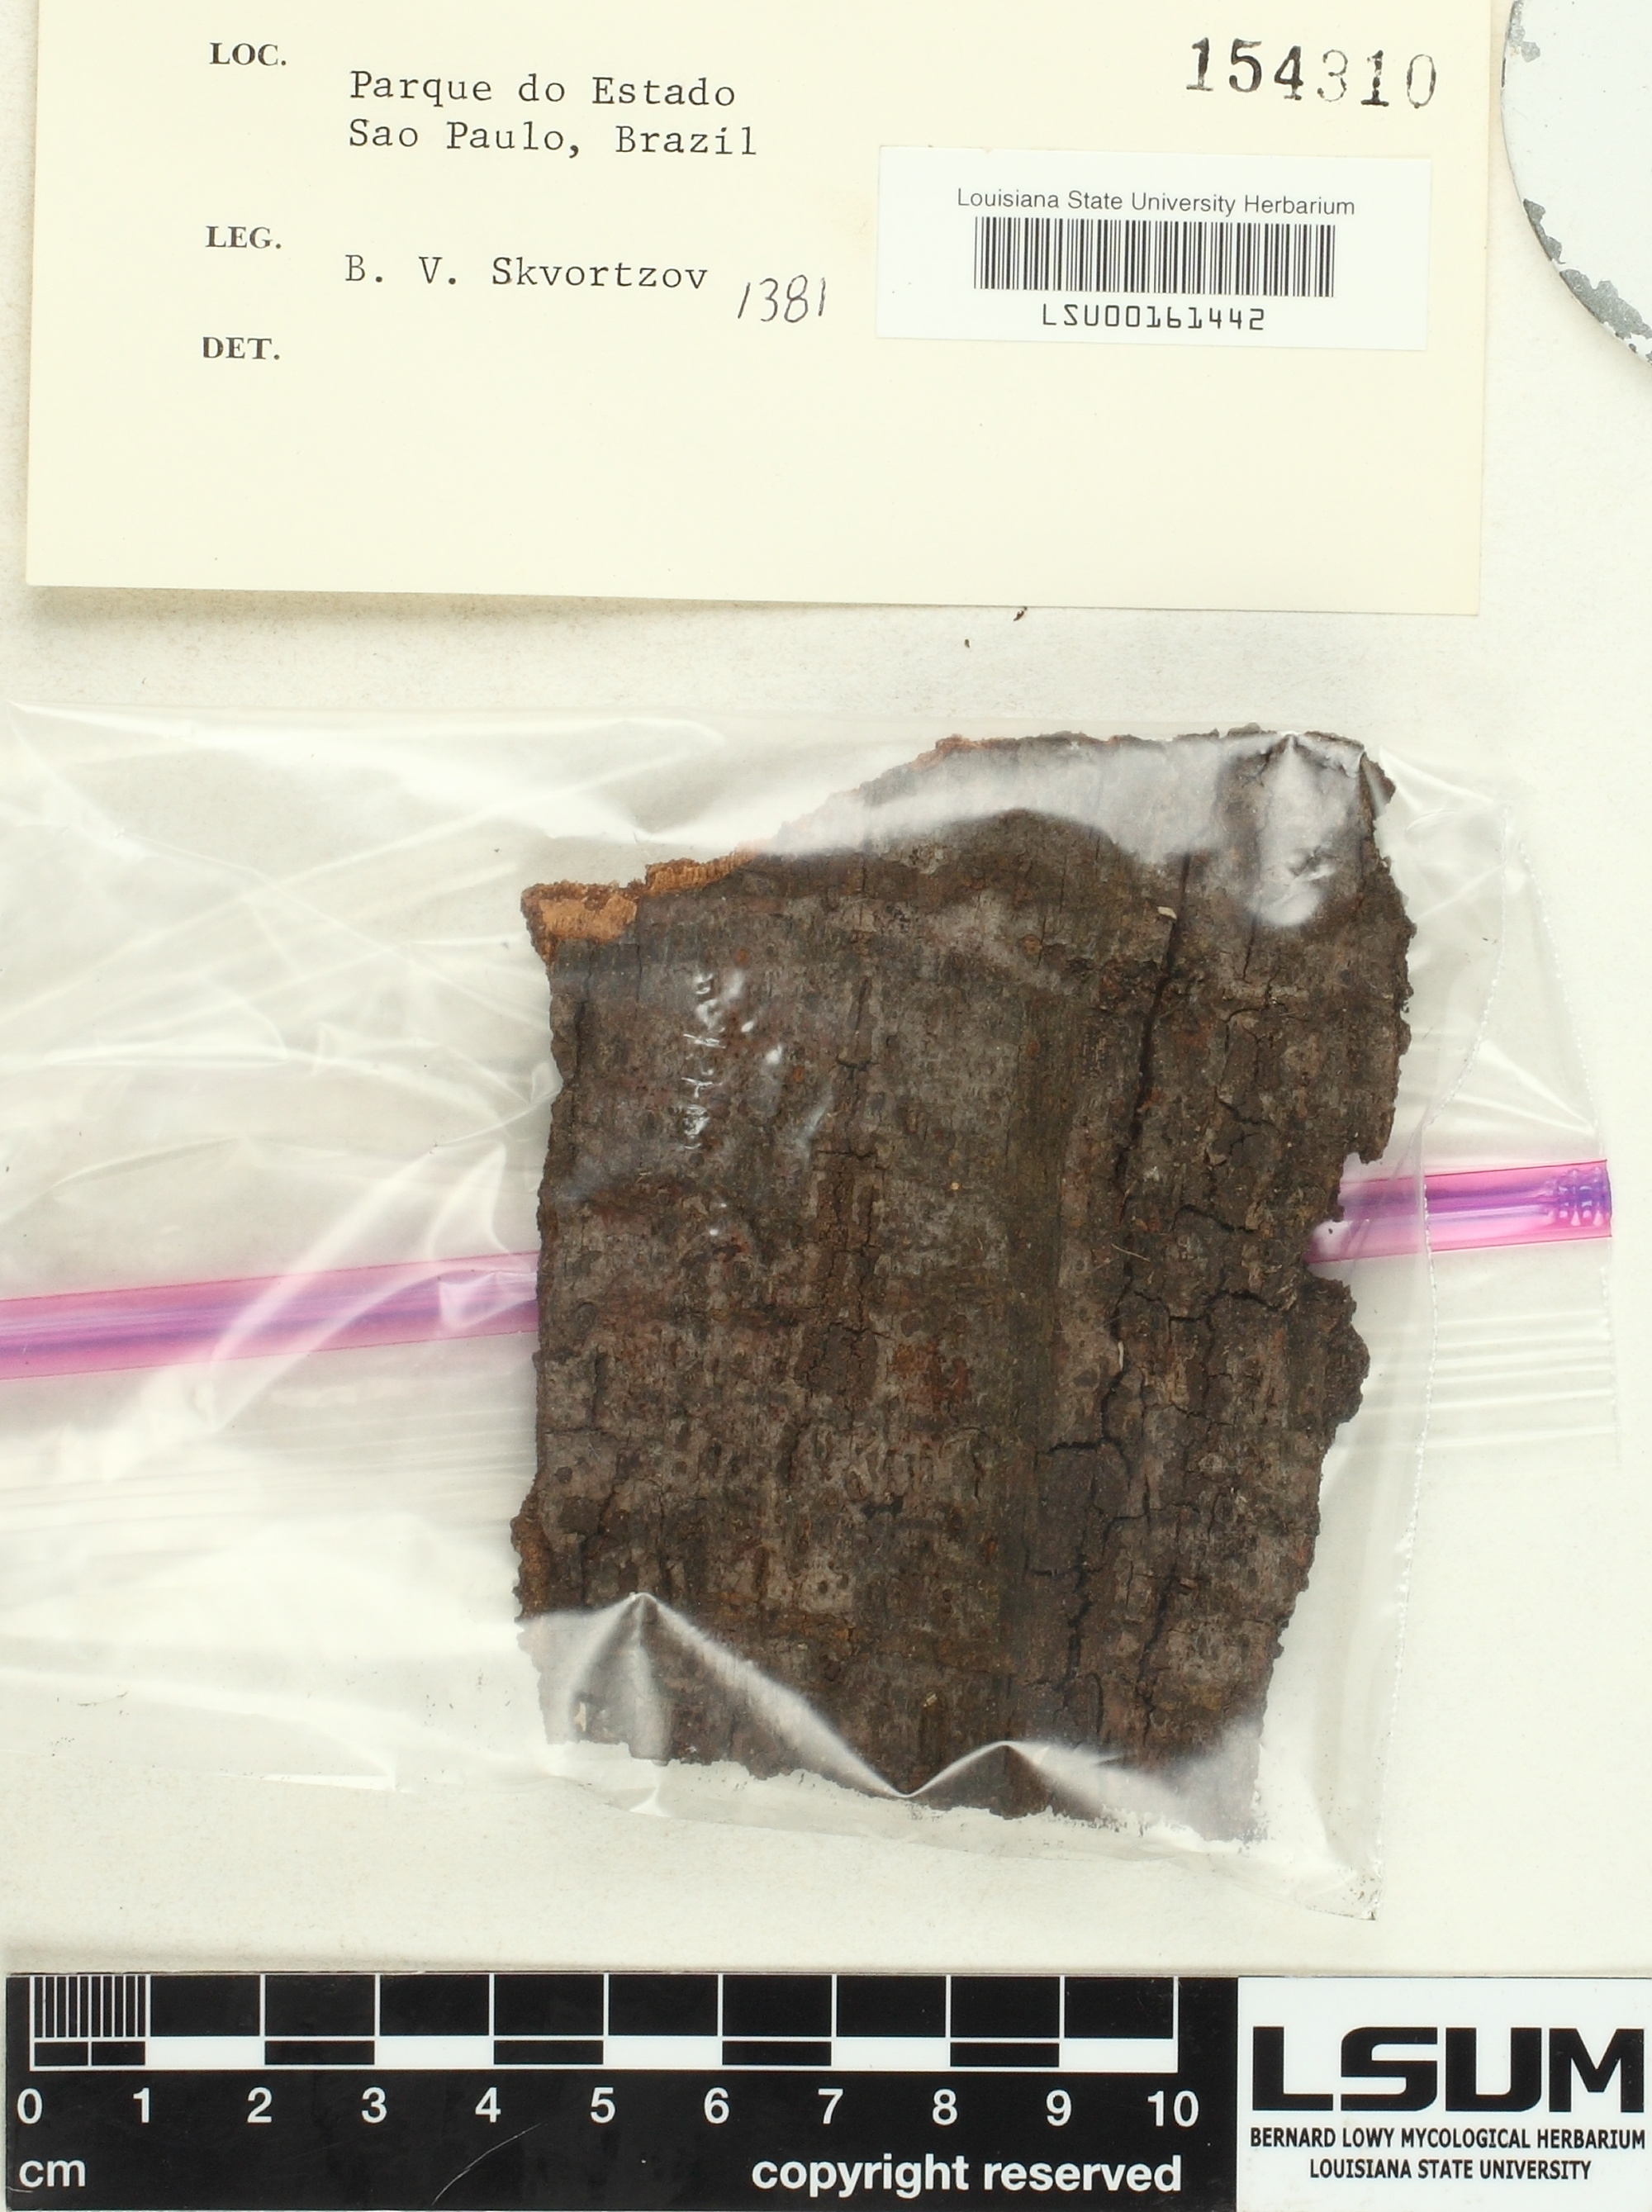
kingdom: Fungi
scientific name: Fungi
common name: Fungi
